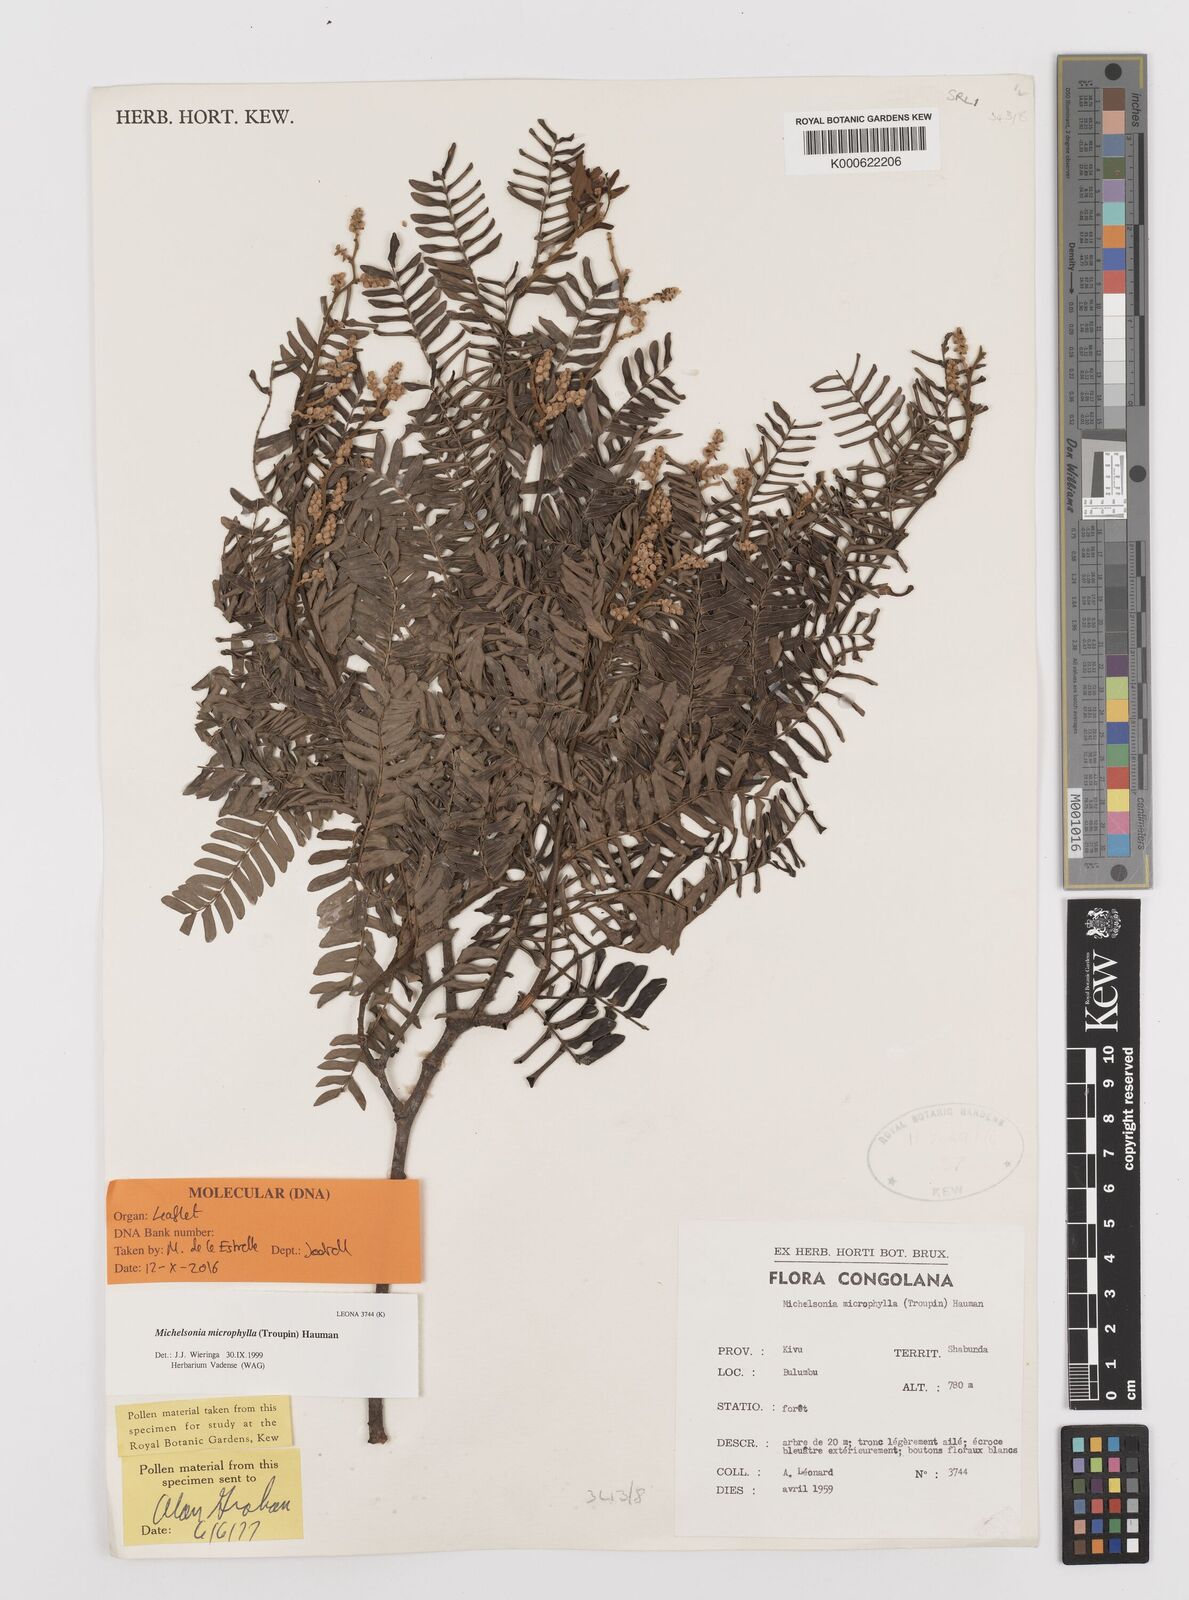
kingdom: Plantae
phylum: Tracheophyta
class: Magnoliopsida
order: Fabales
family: Fabaceae
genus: Michelsonia
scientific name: Michelsonia microphylla
